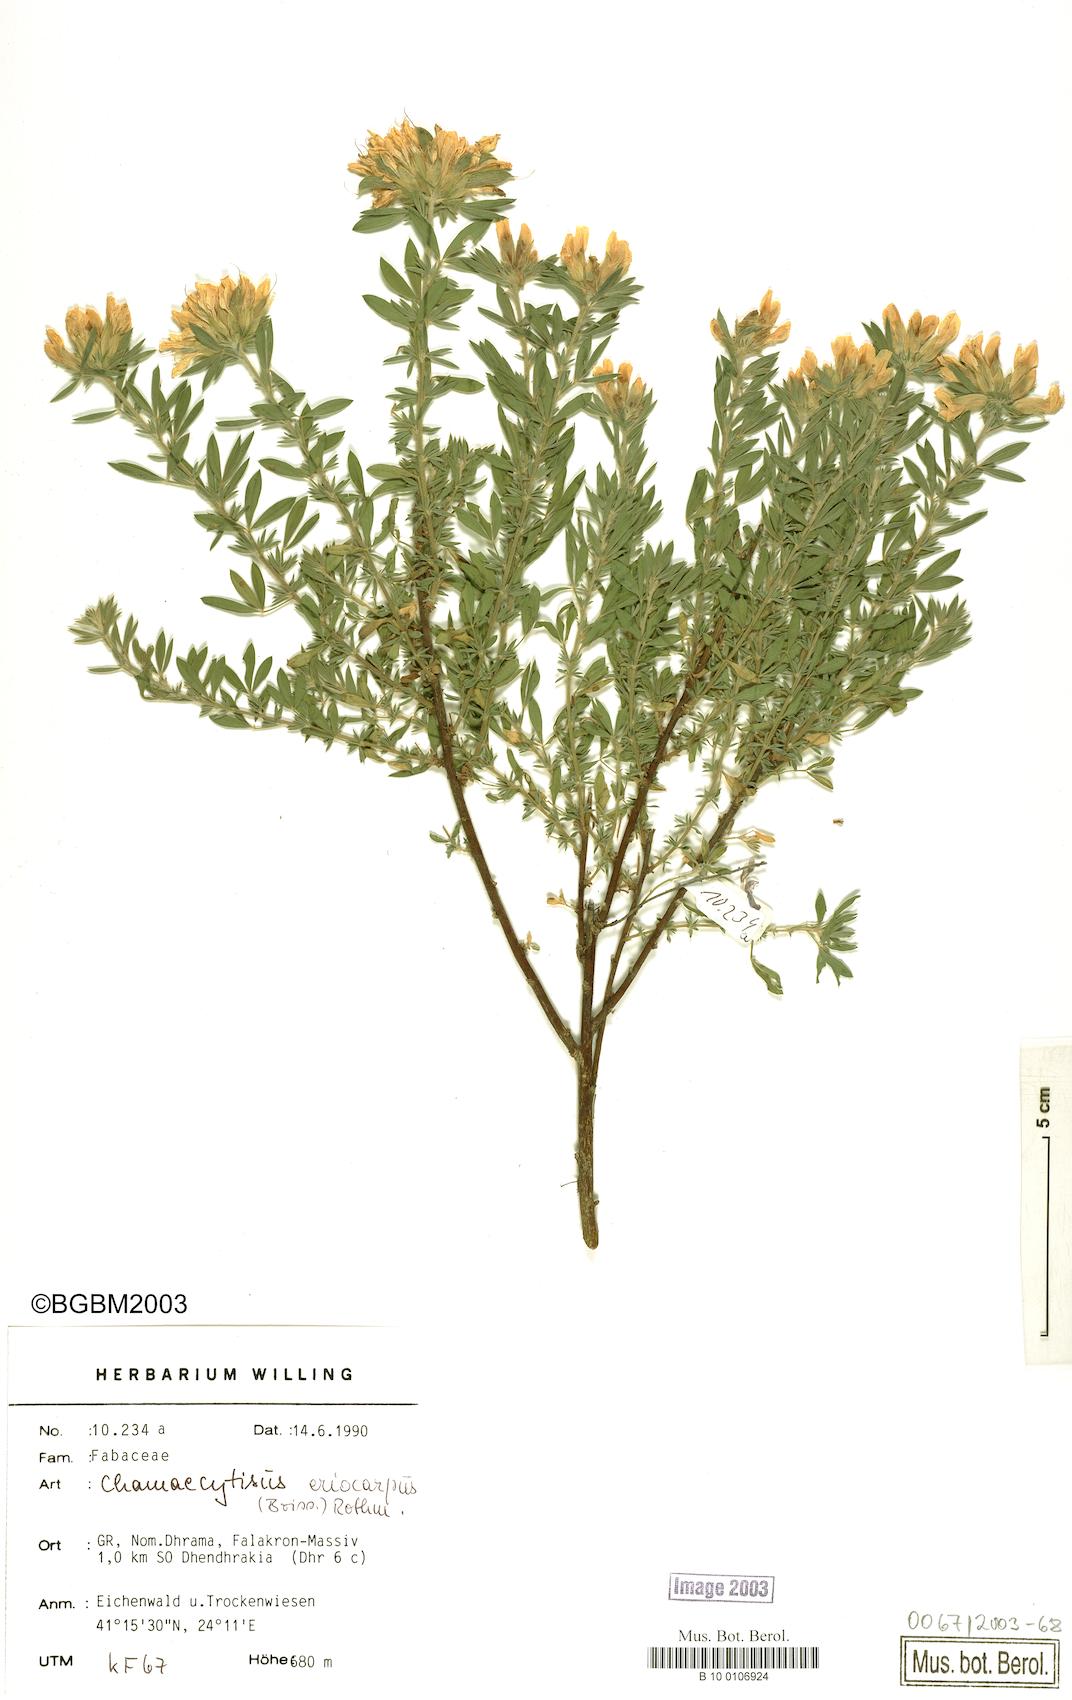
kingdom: Plantae
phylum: Tracheophyta
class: Magnoliopsida
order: Fabales
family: Fabaceae
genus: Chamaecytisus
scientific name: Chamaecytisus eriocarpus
